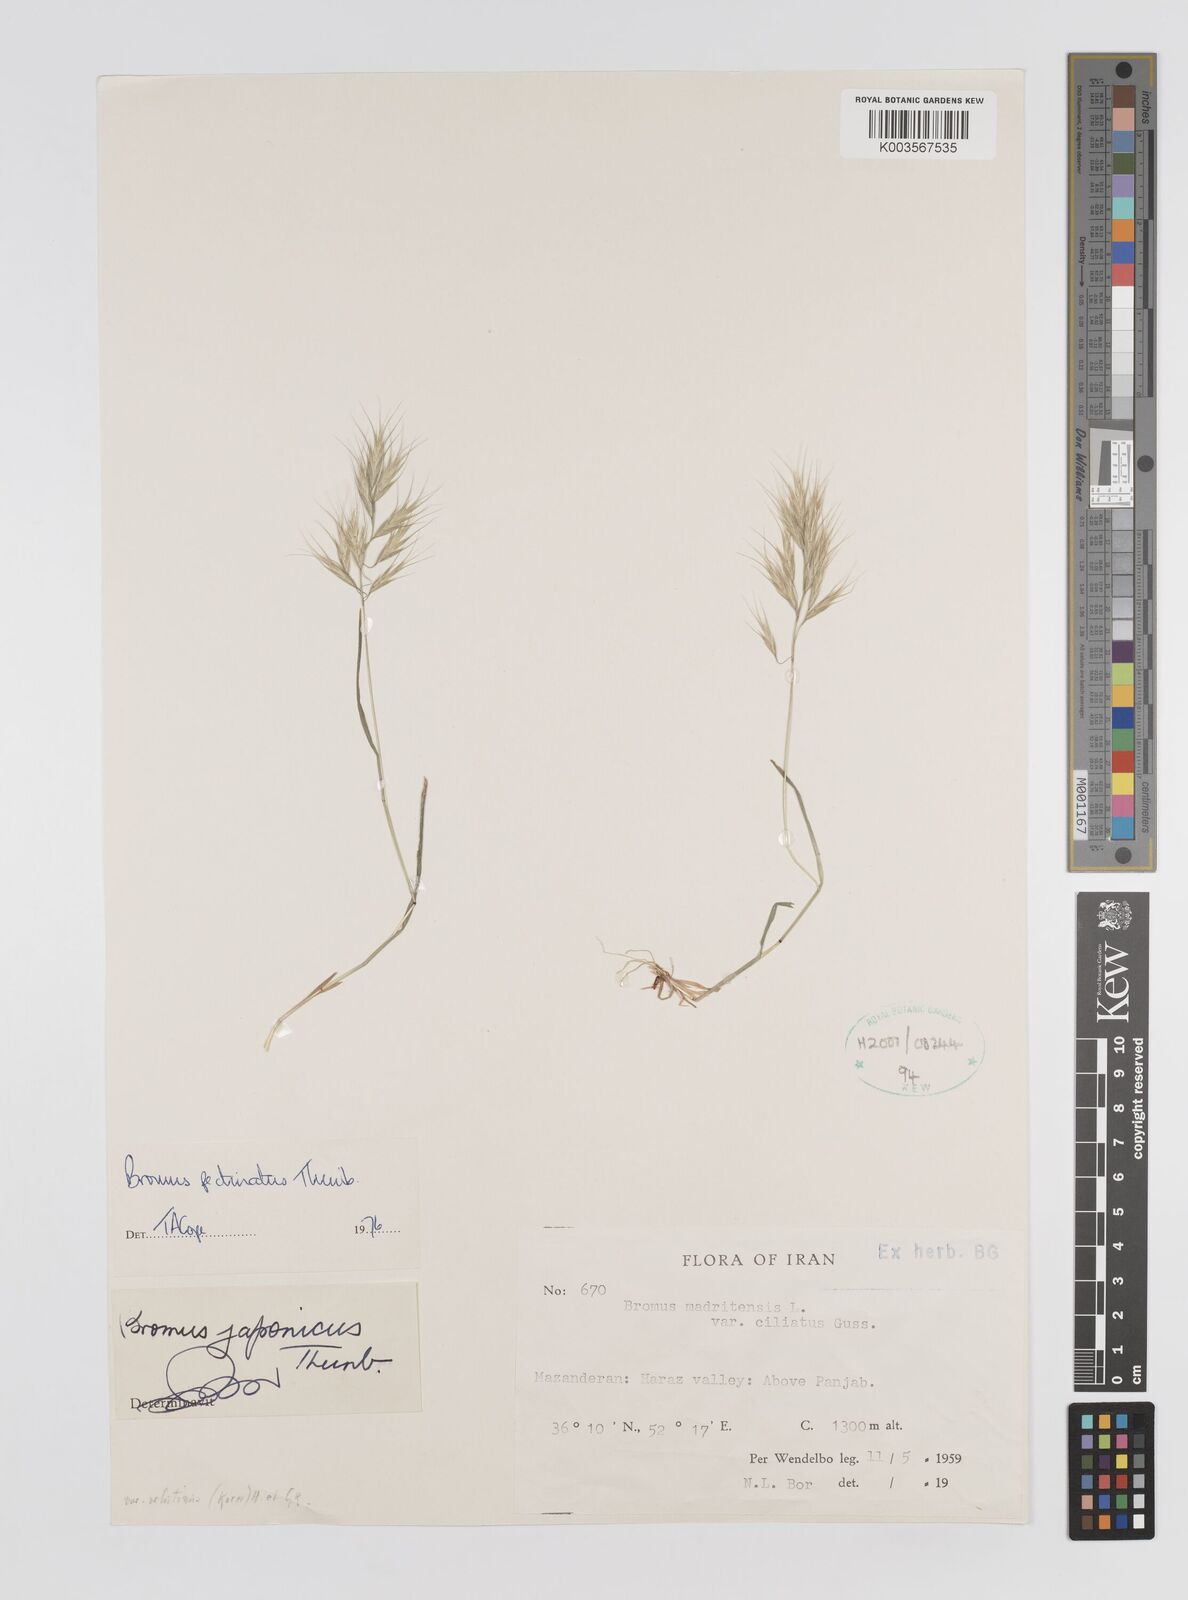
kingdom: Plantae
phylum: Tracheophyta
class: Liliopsida
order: Poales
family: Poaceae
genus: Bromus
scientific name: Bromus pectinatus
